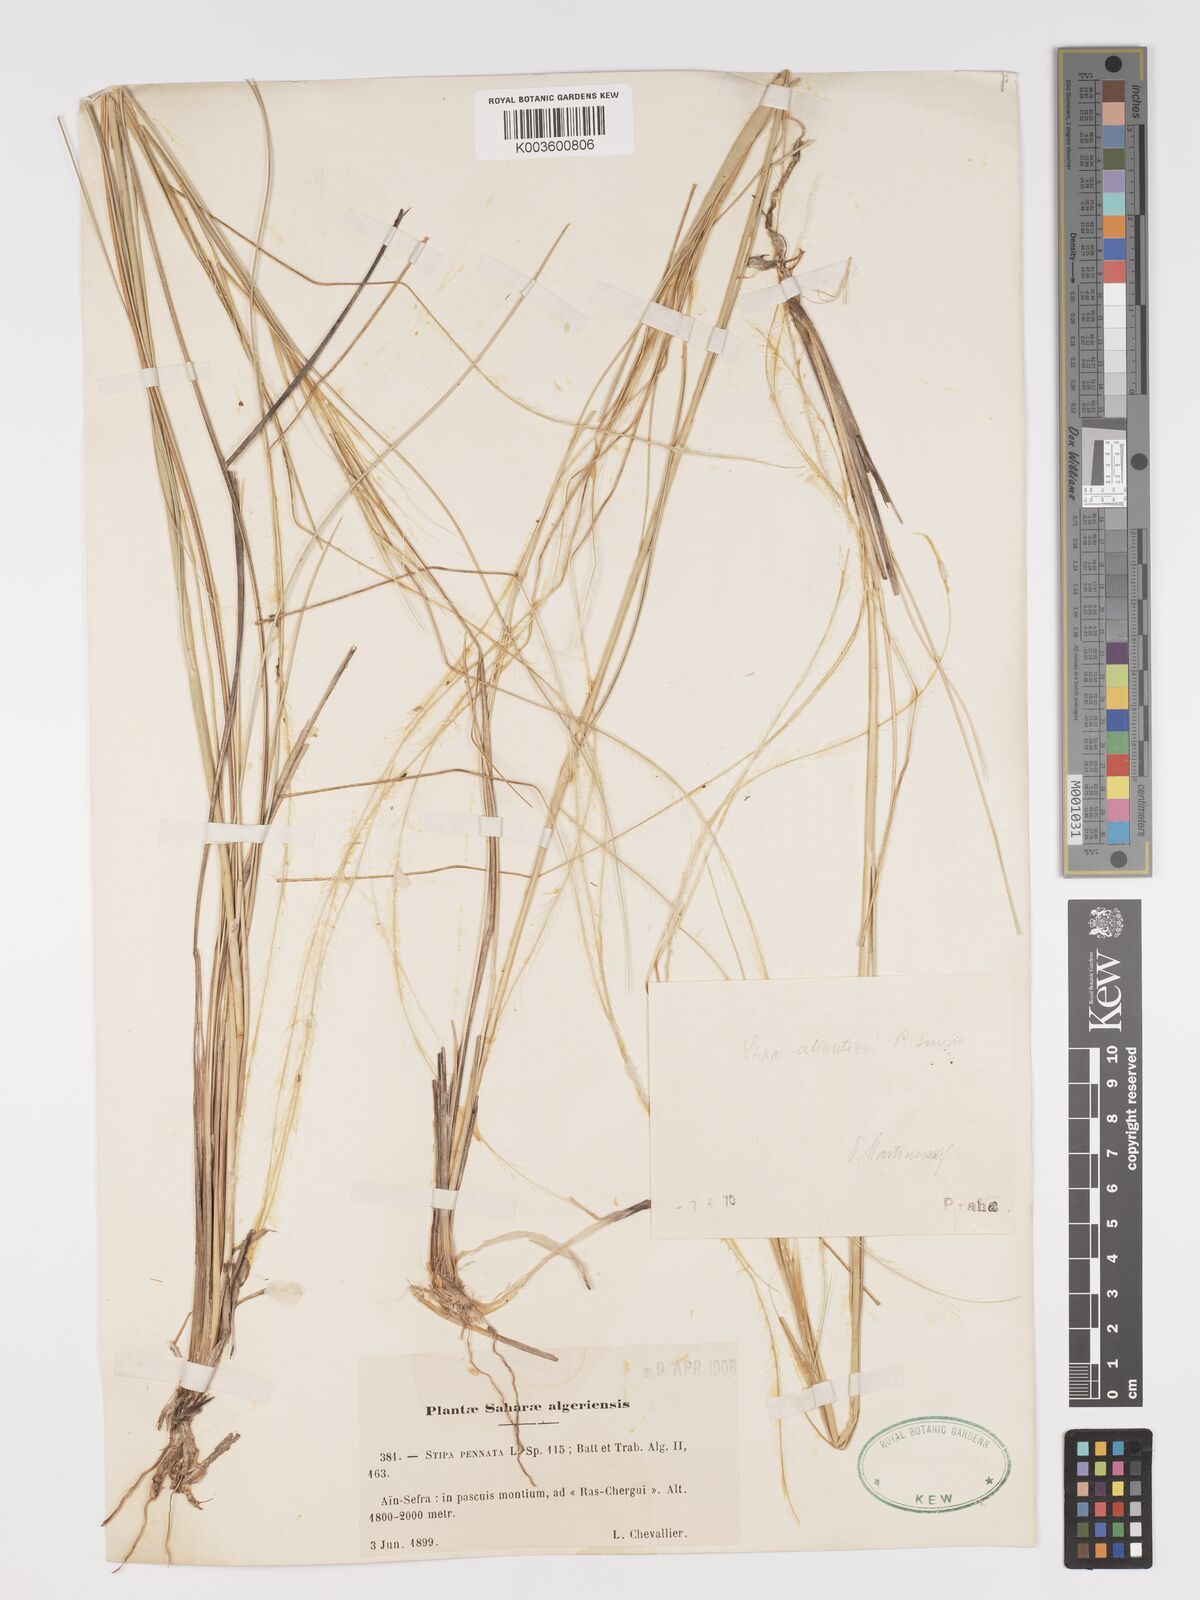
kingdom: Plantae
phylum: Tracheophyta
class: Liliopsida
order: Poales
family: Poaceae
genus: Stipa
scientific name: Stipa atlantica
